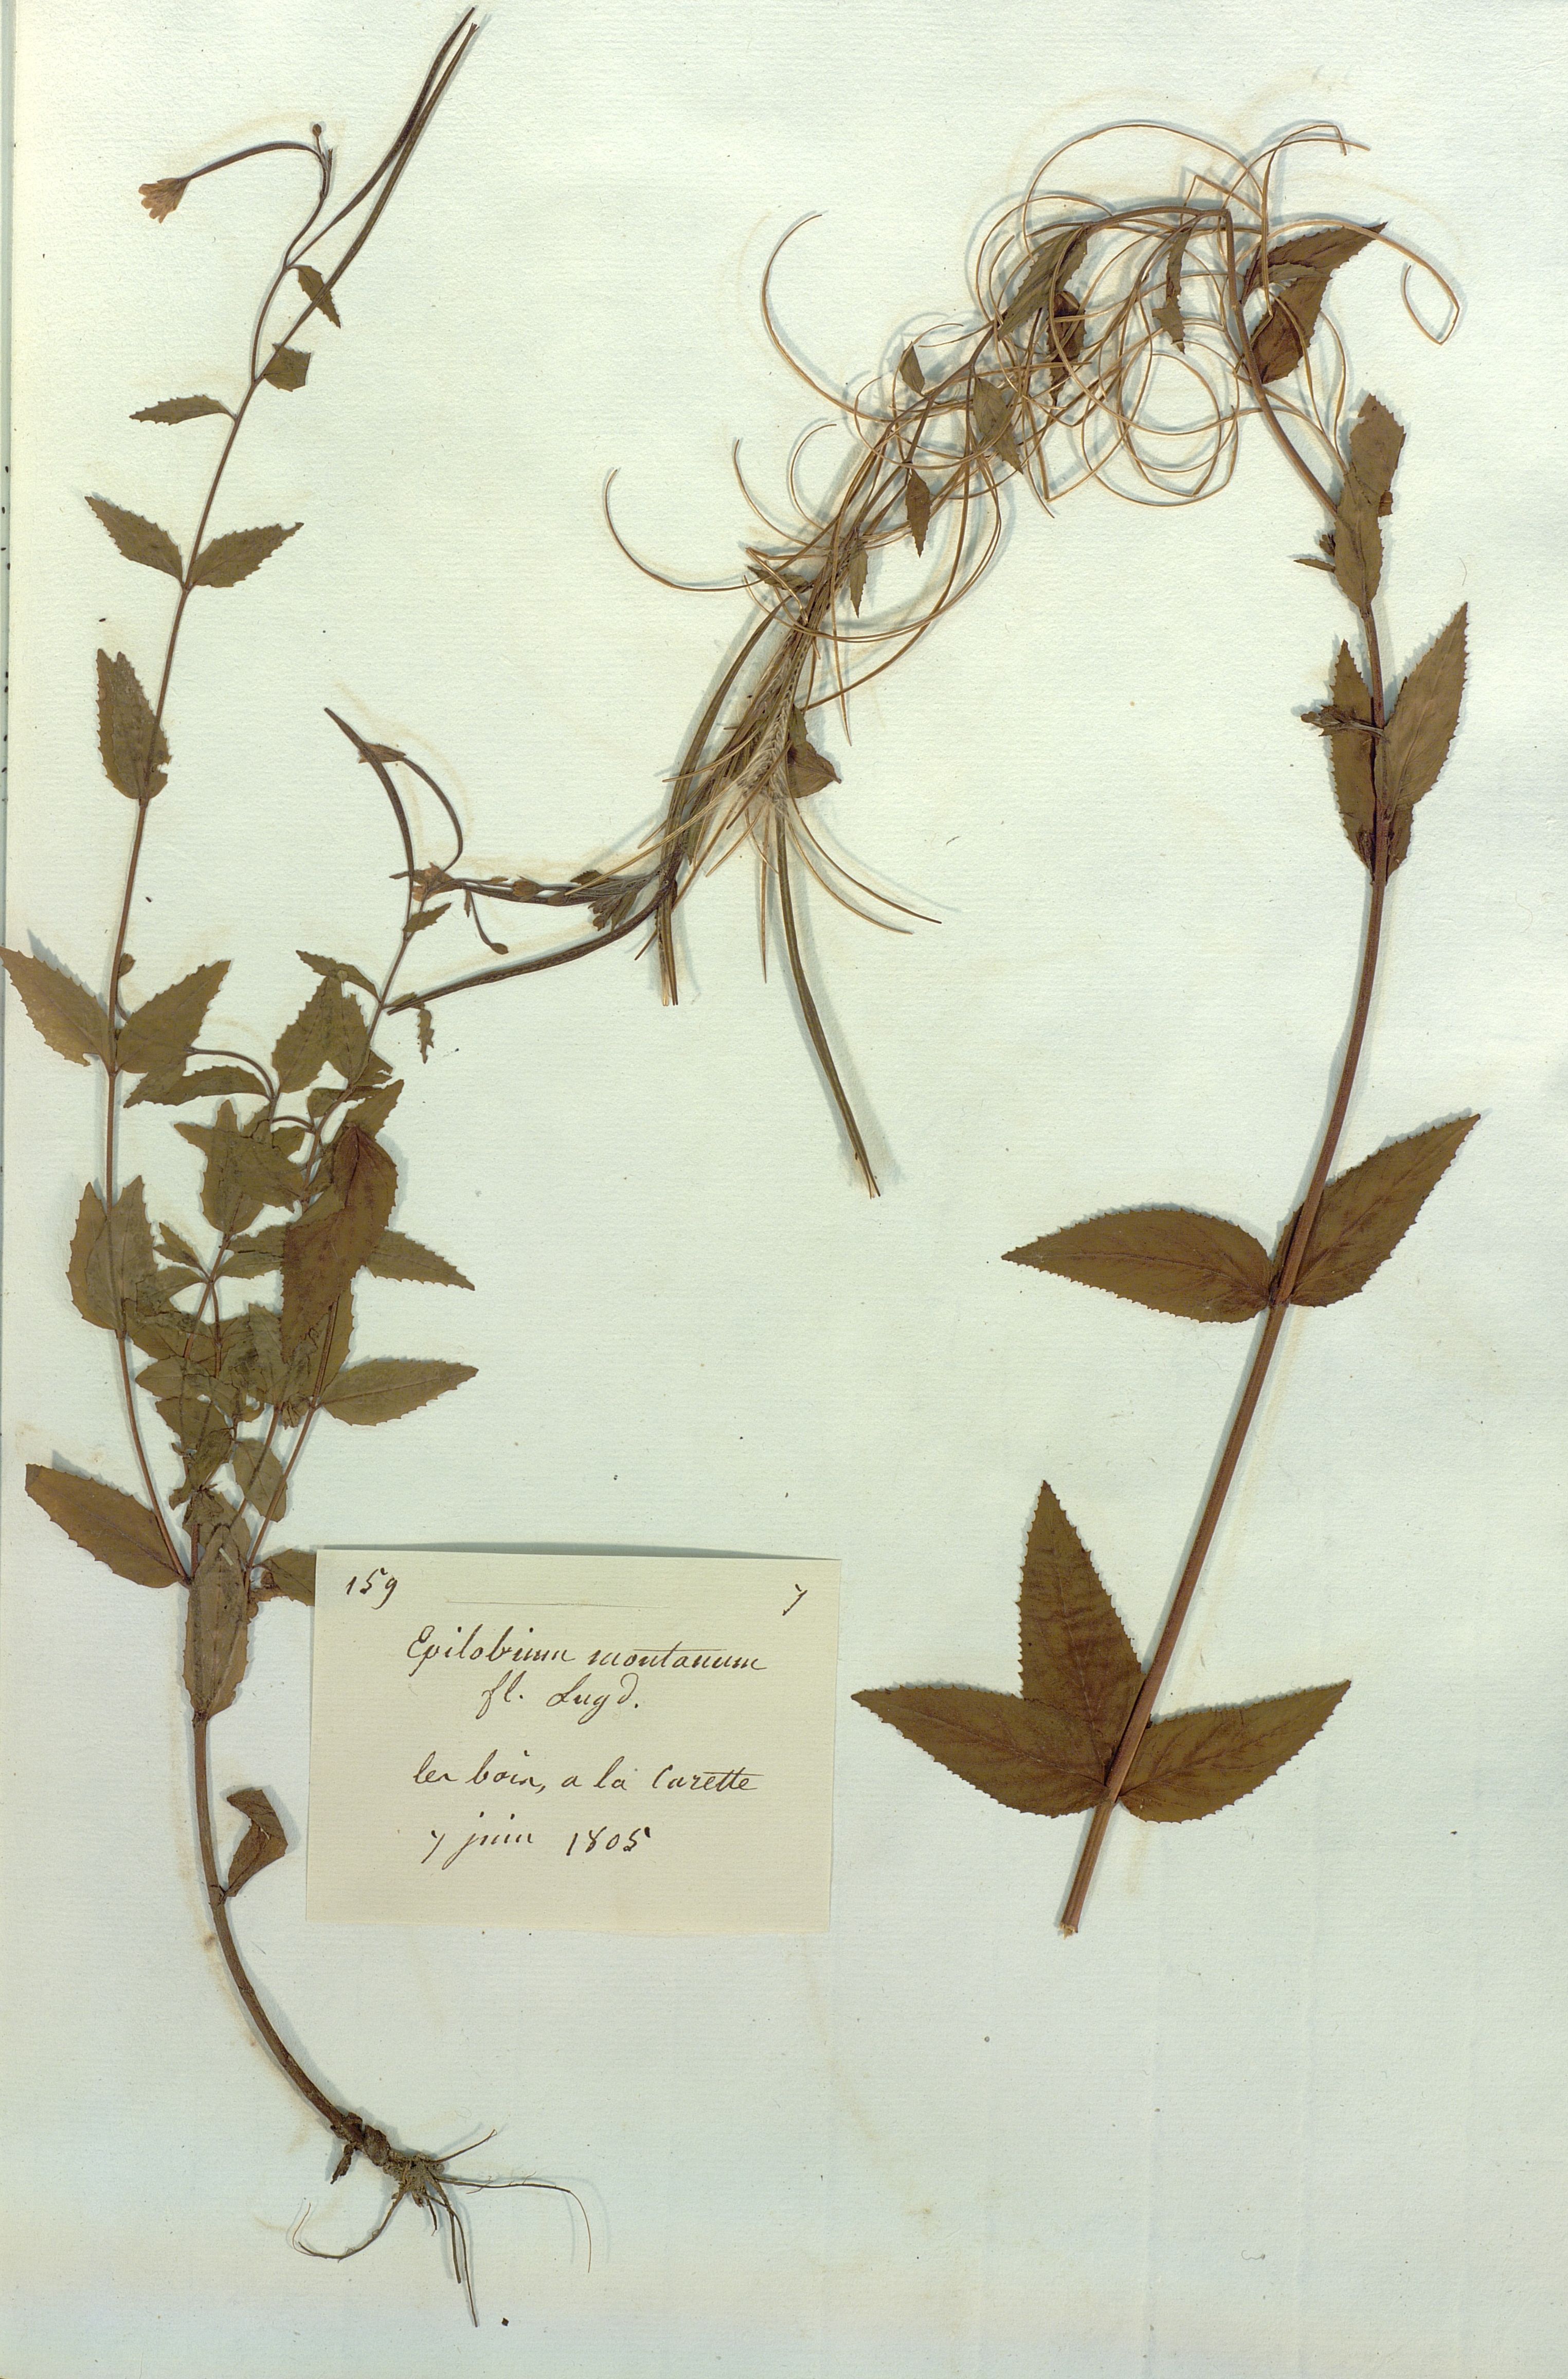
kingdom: Plantae
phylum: Tracheophyta
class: Magnoliopsida
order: Myrtales
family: Onagraceae
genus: Epilobium
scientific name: Epilobium montanum
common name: Broad-leaved willowherb
